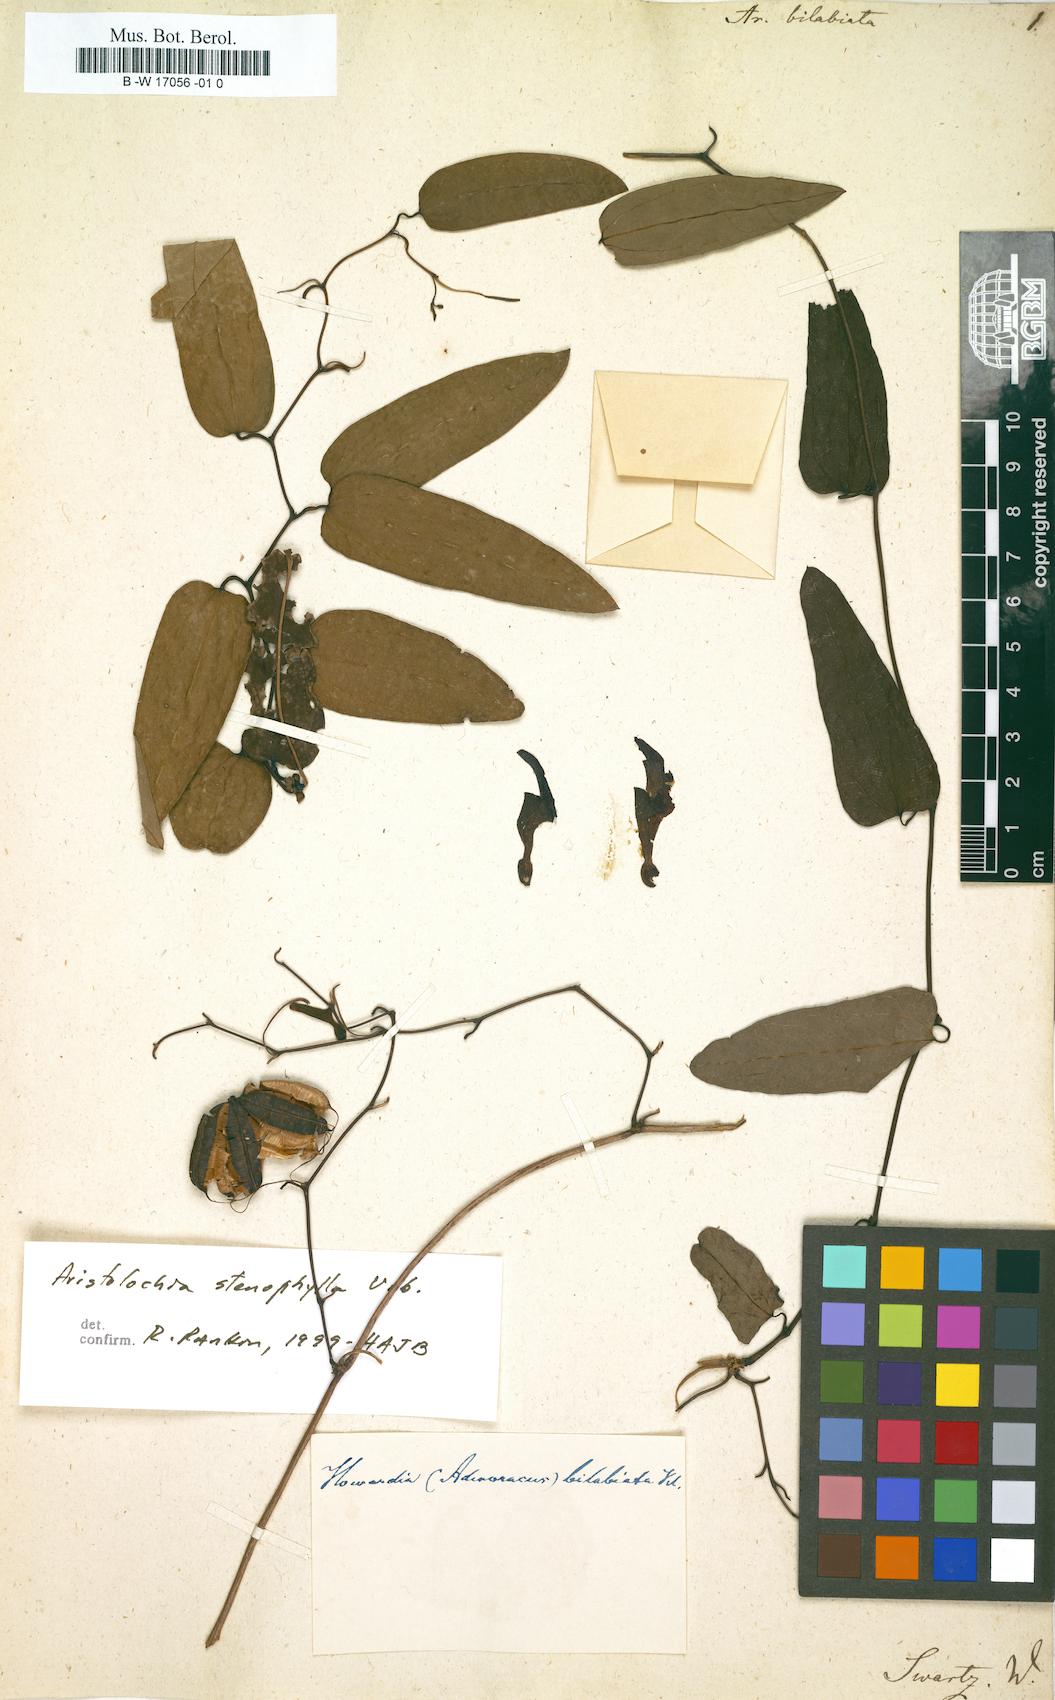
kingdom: Plantae
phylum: Tracheophyta
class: Magnoliopsida
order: Piperales
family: Aristolochiaceae
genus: Aristolochia
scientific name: Aristolochia bilabiata
